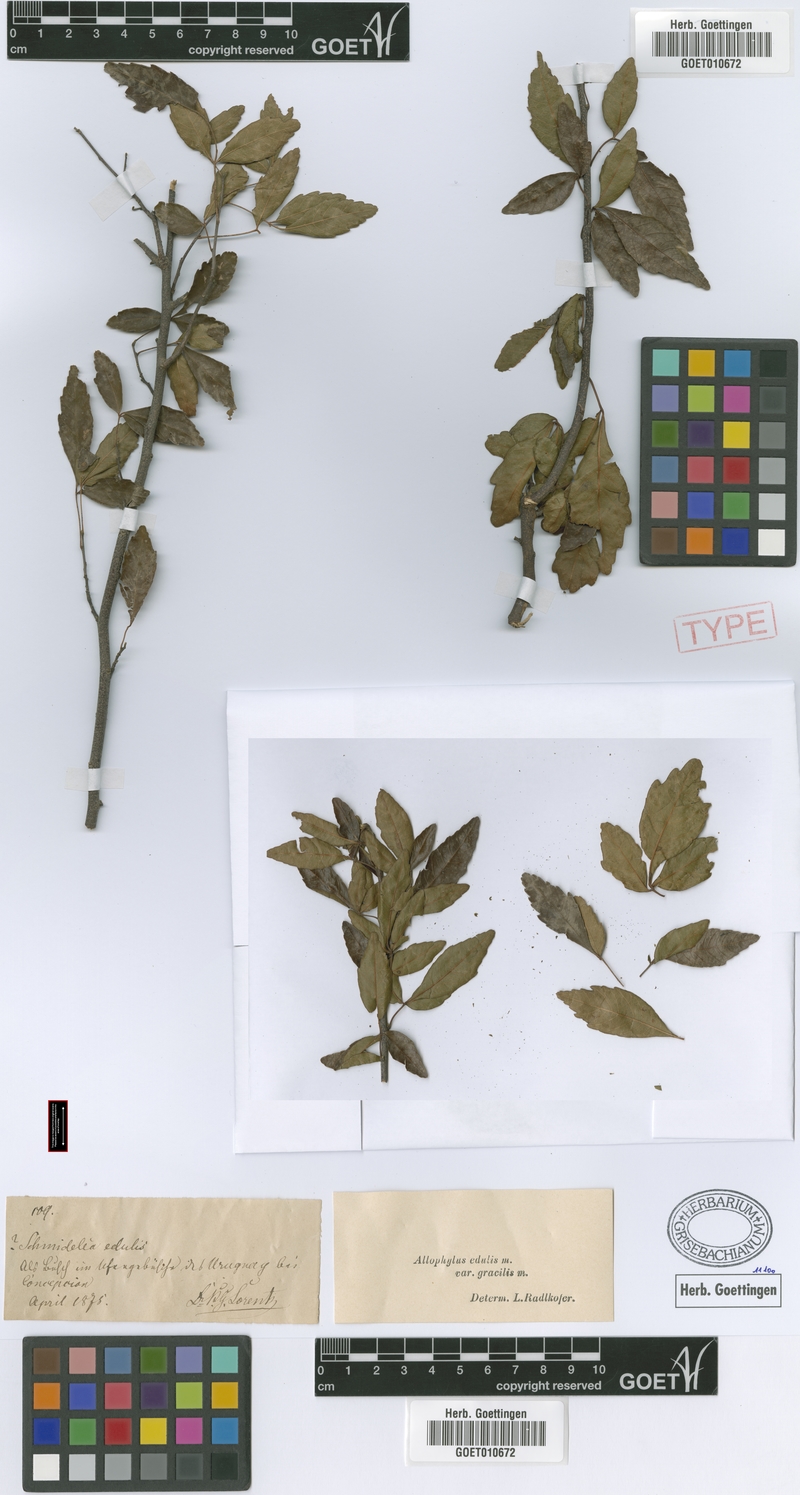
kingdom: Plantae
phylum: Tracheophyta
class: Magnoliopsida
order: Sapindales
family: Sapindaceae
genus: Allophylus
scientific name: Allophylus edulis
